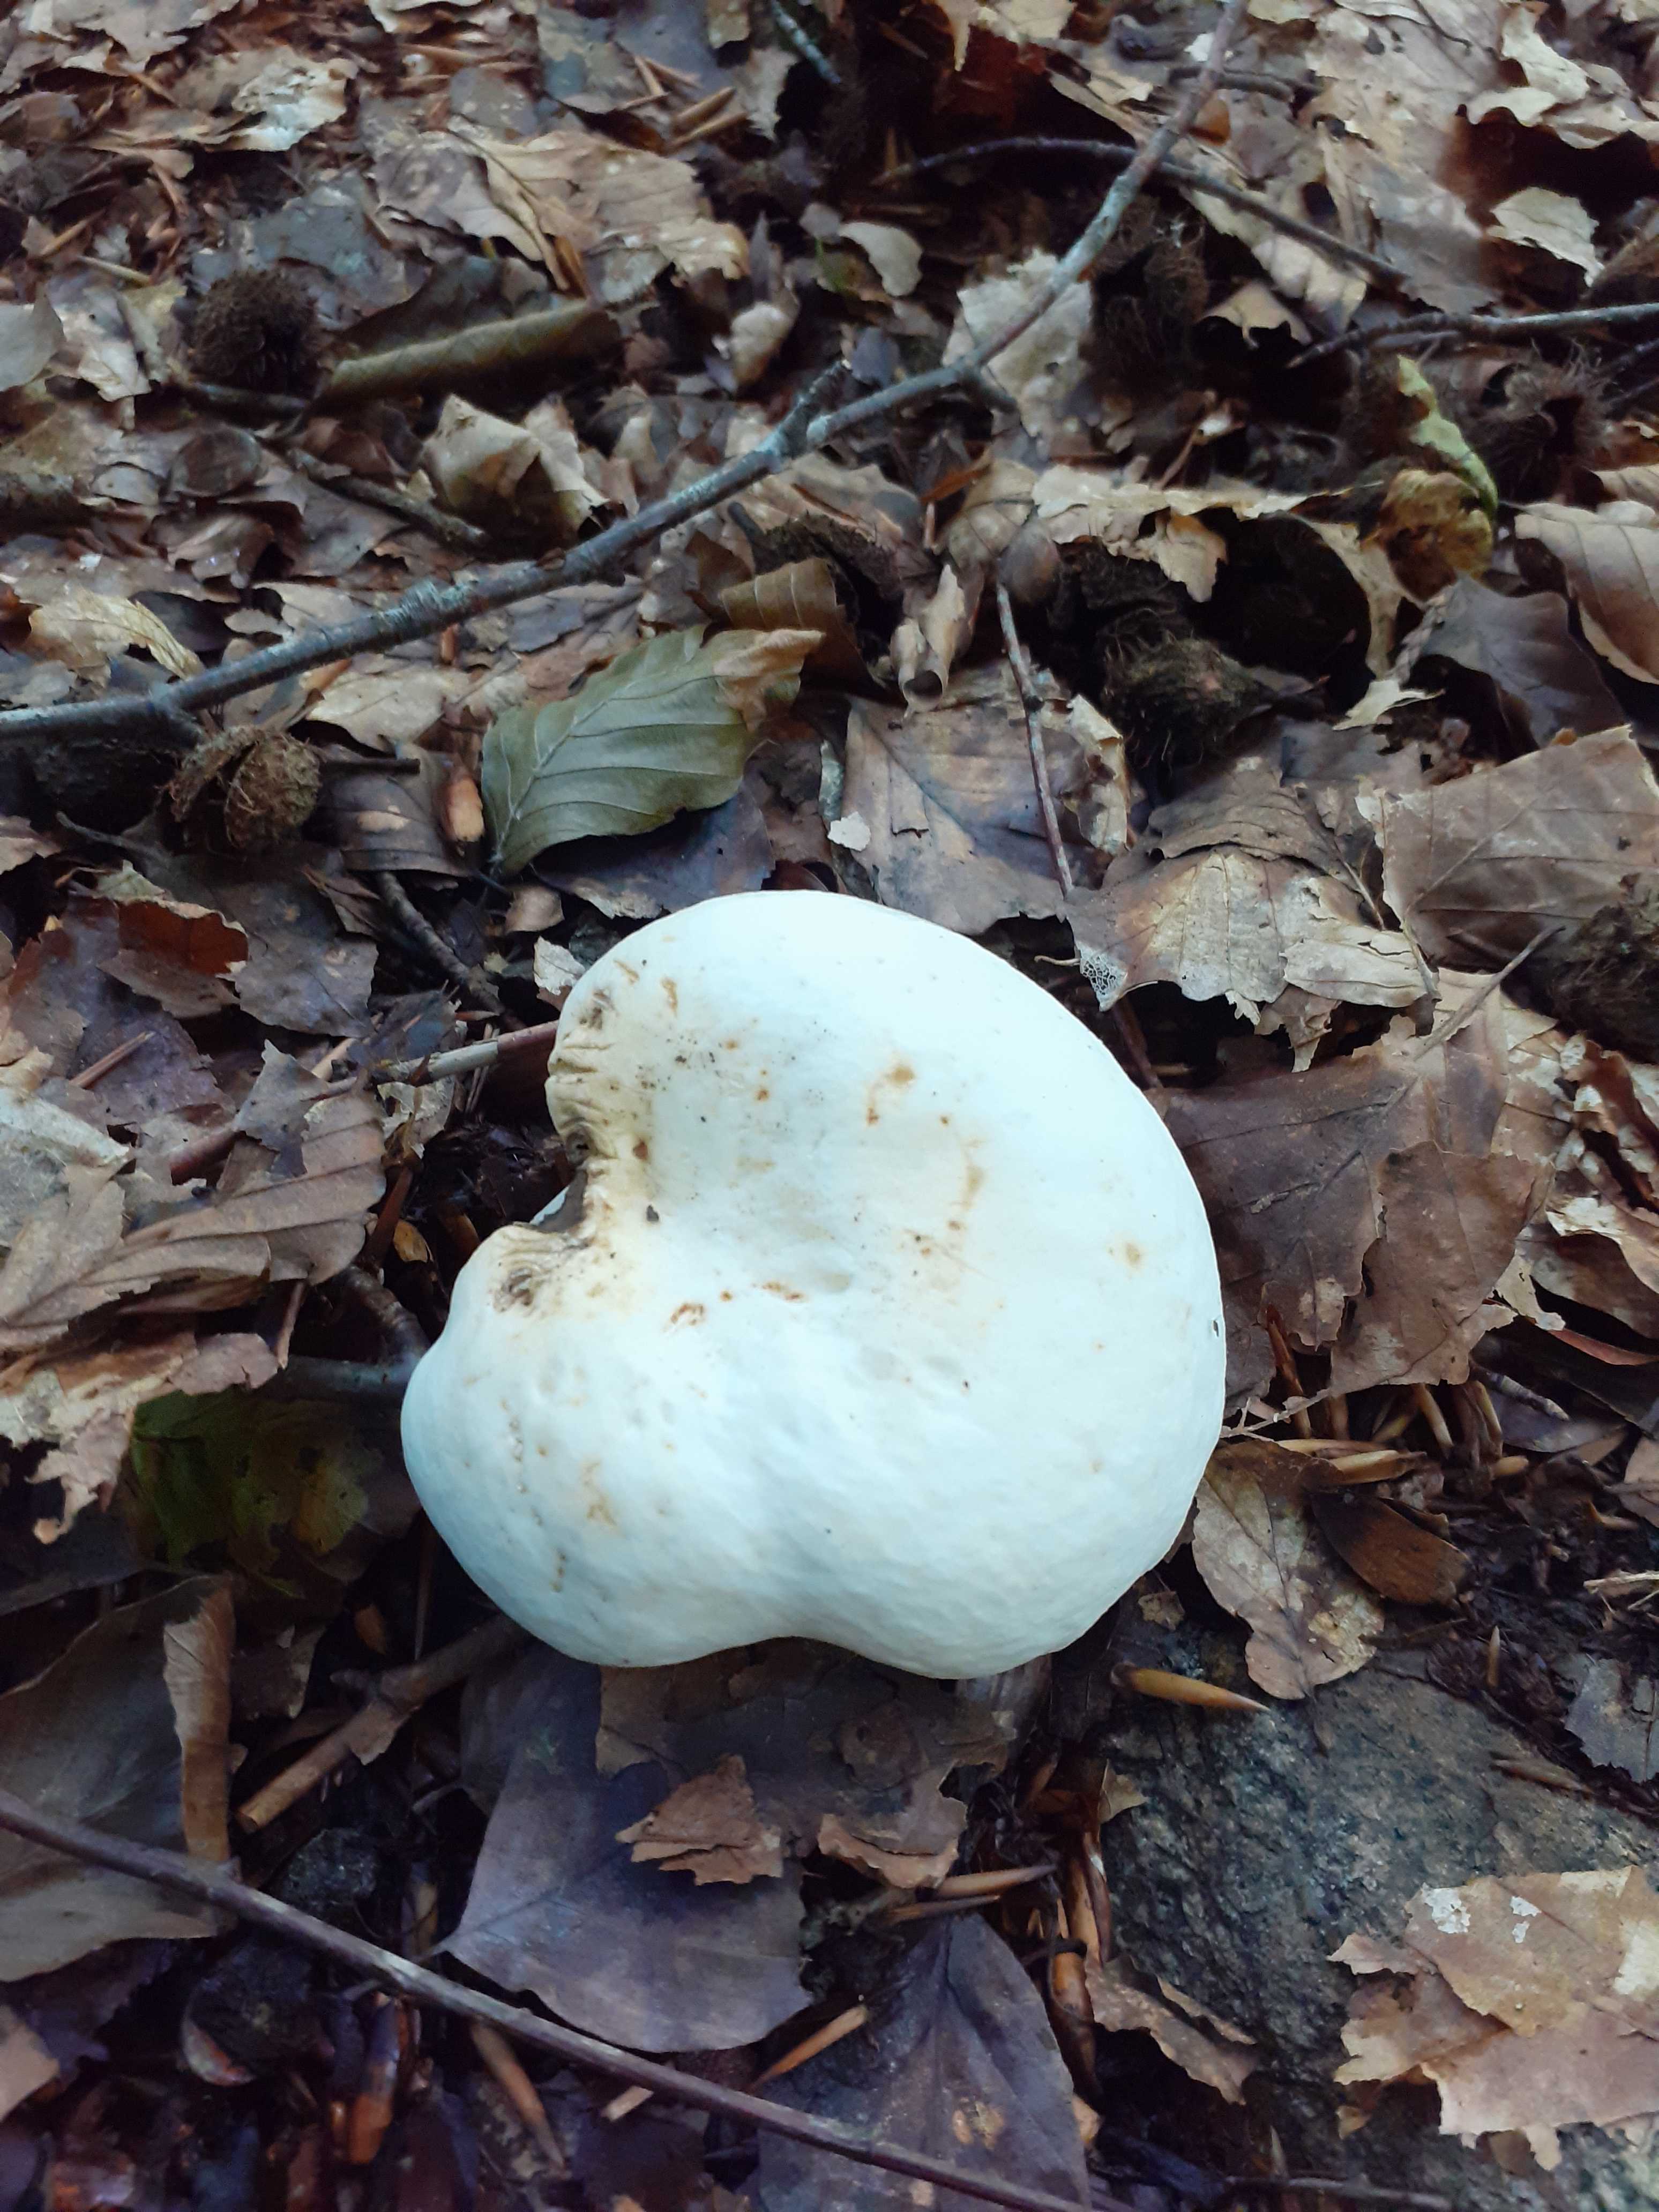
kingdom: Fungi
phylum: Basidiomycota
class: Agaricomycetes
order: Russulales
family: Russulaceae
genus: Lactifluus
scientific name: Lactifluus piperatus
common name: peber-mælkehat
